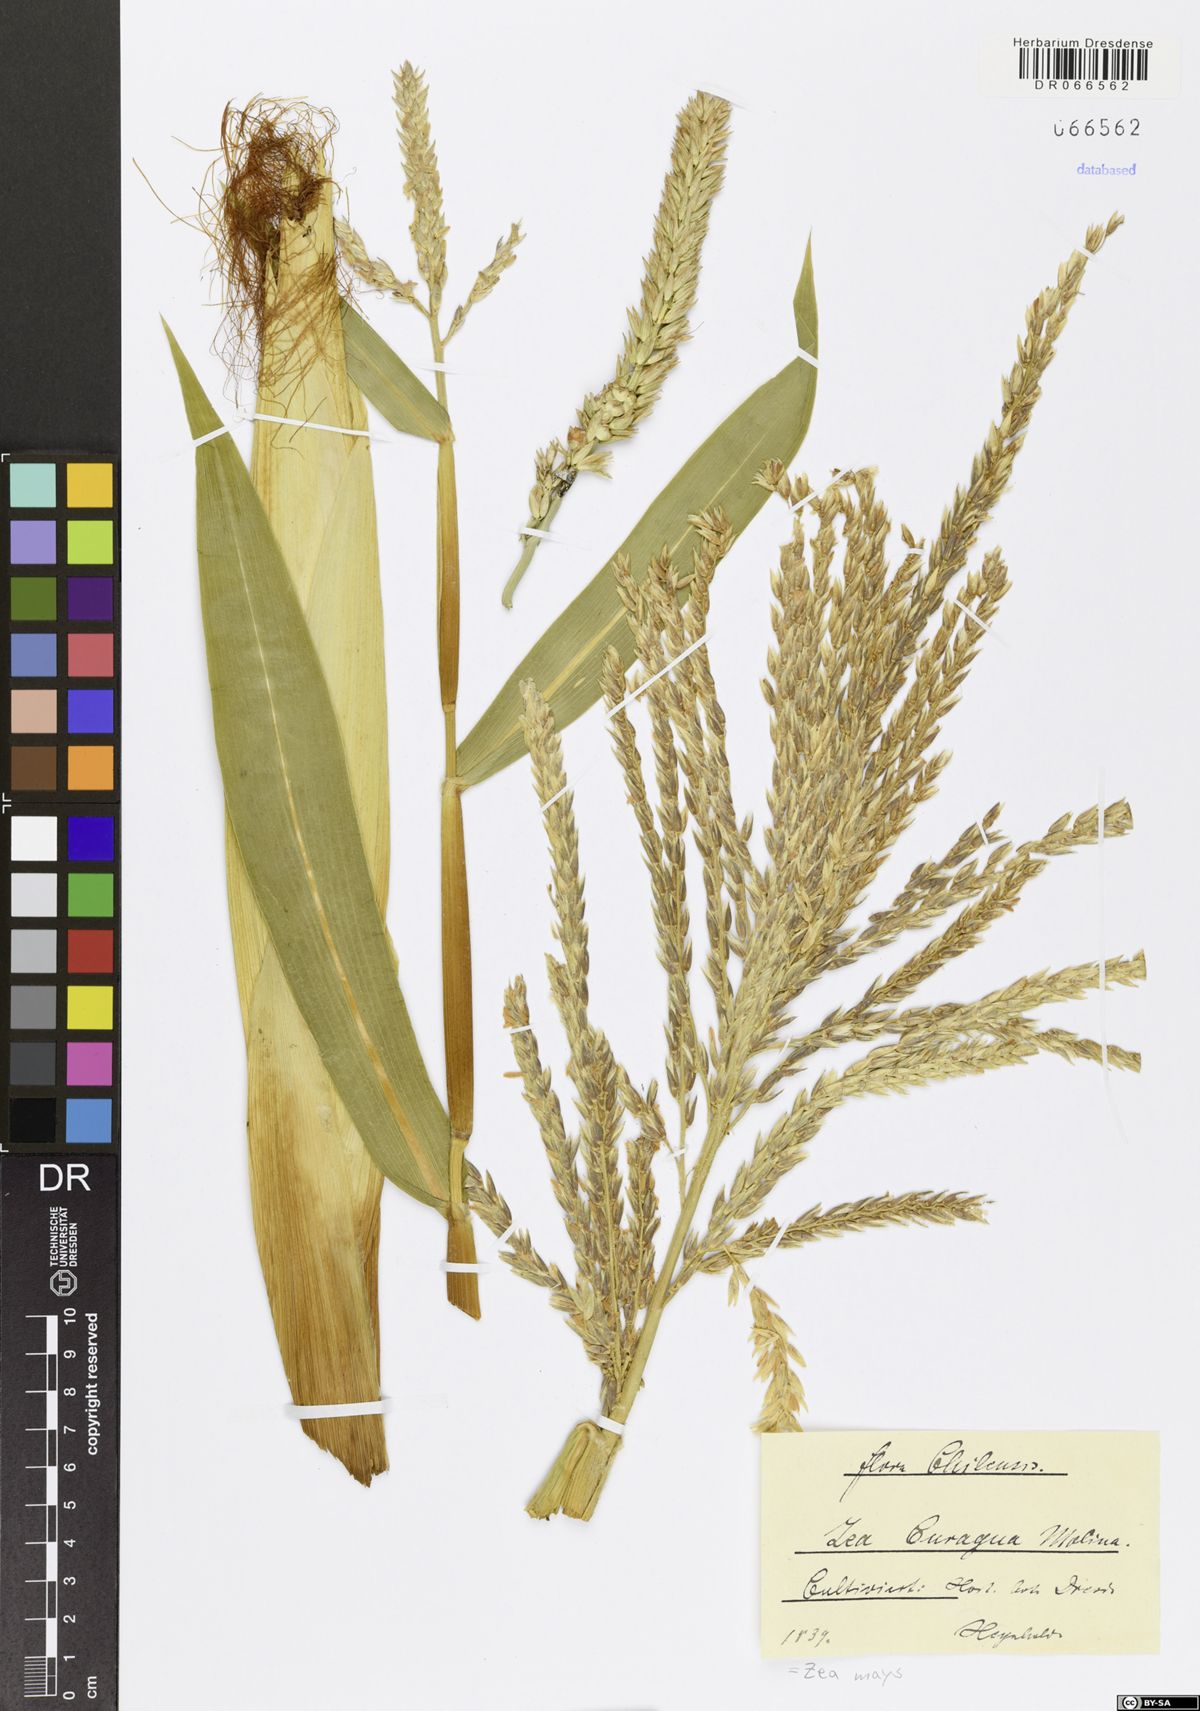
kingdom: Plantae
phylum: Tracheophyta
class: Liliopsida
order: Poales
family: Poaceae
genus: Zea
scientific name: Zea mays
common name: Maize
